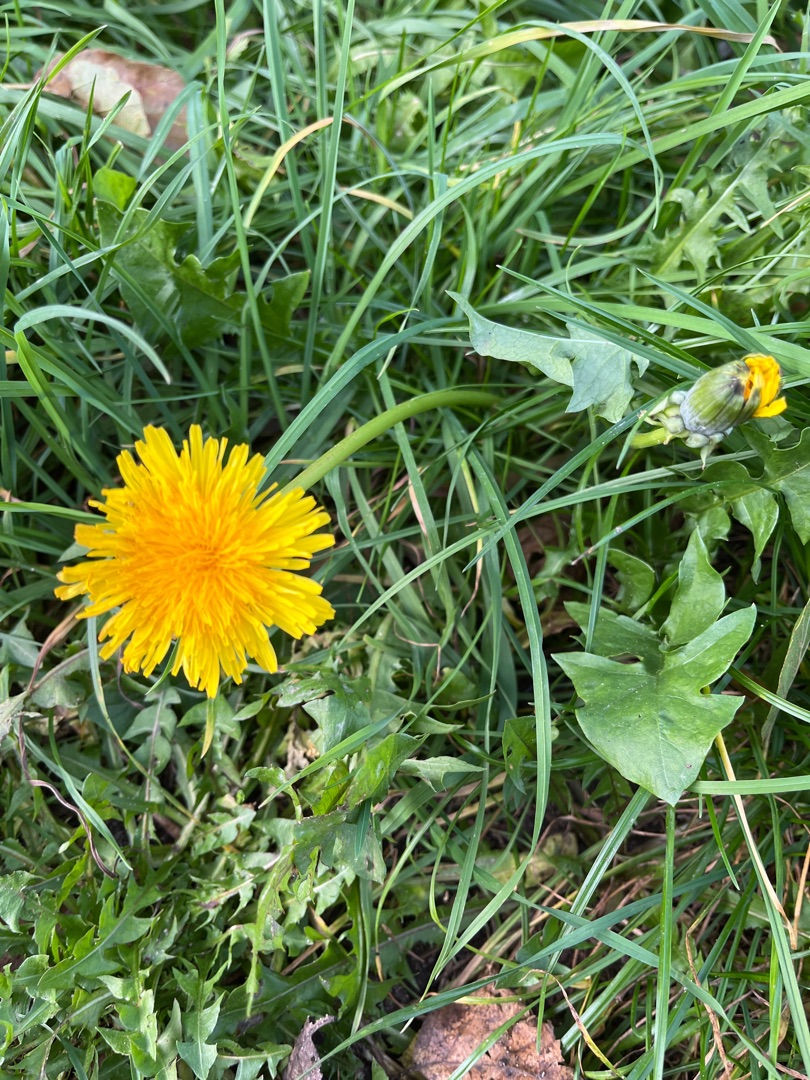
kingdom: Plantae
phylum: Tracheophyta
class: Magnoliopsida
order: Asterales
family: Asteraceae
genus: Taraxacum
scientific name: Taraxacum
